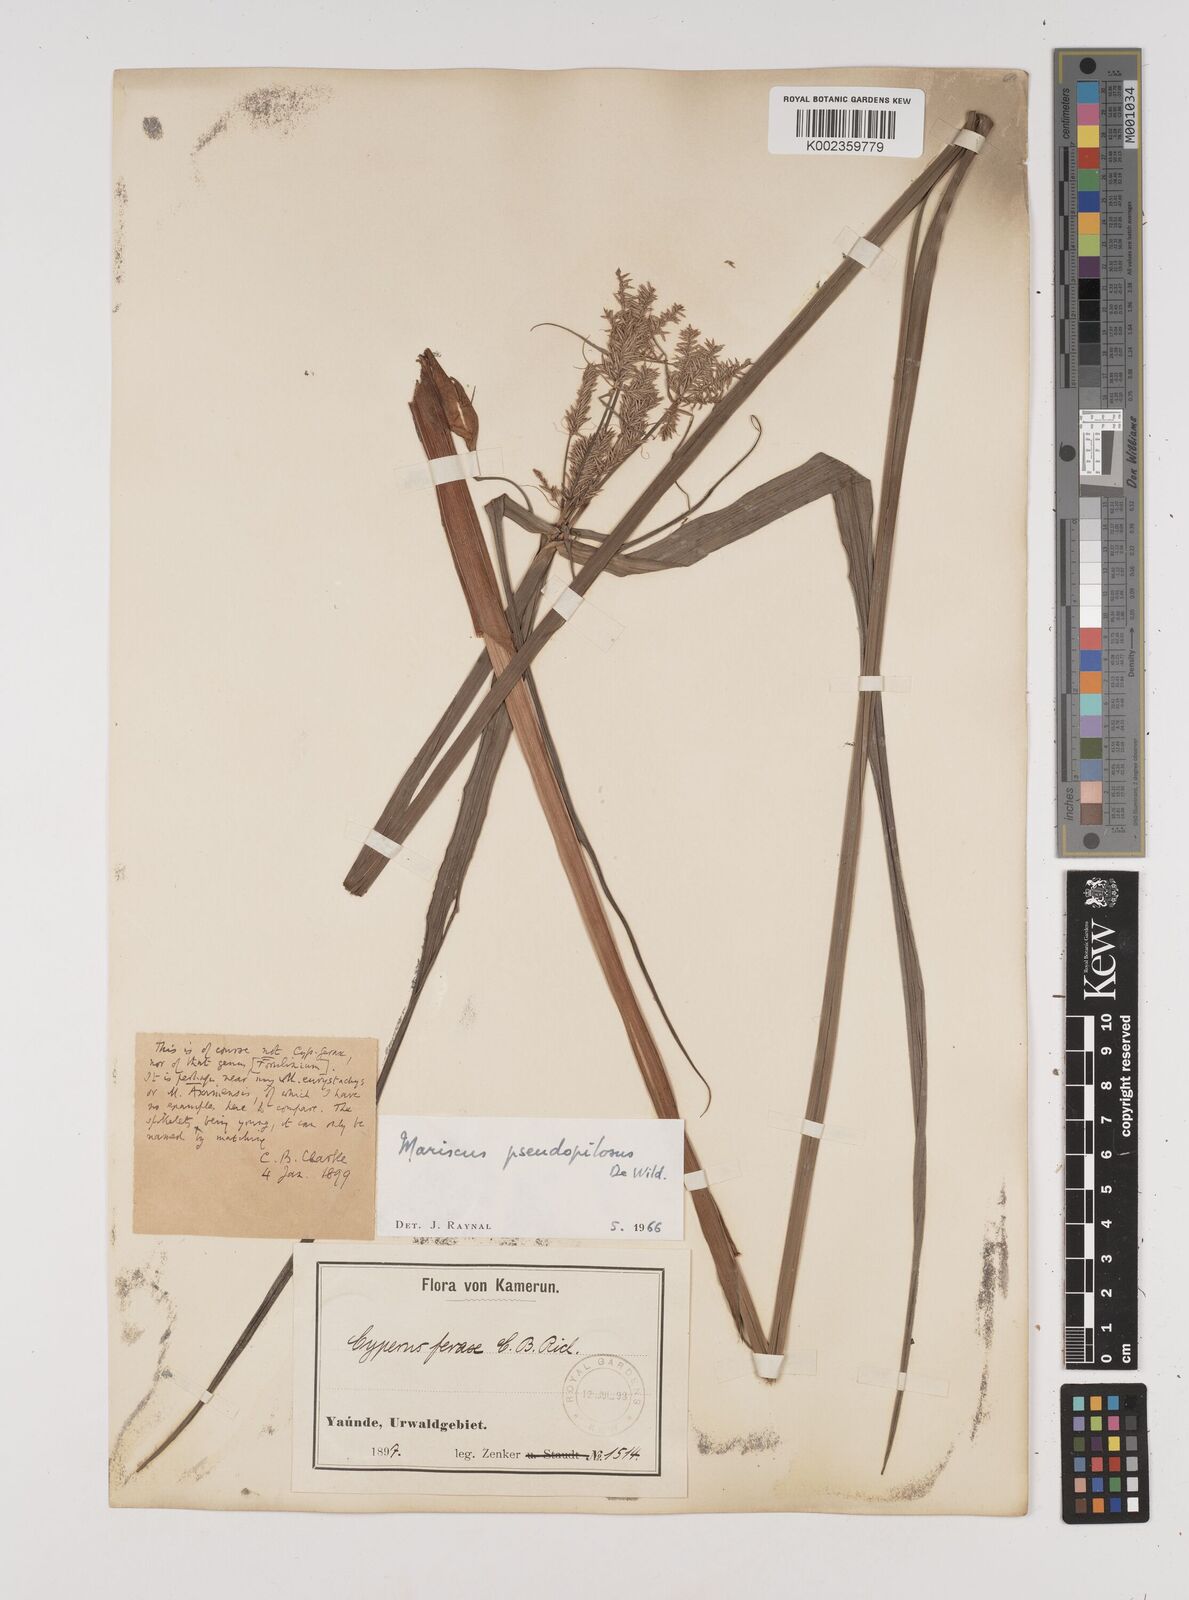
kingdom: Plantae
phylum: Tracheophyta
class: Liliopsida
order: Poales
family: Cyperaceae
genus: Cyperus
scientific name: Cyperus pseudopilosus
